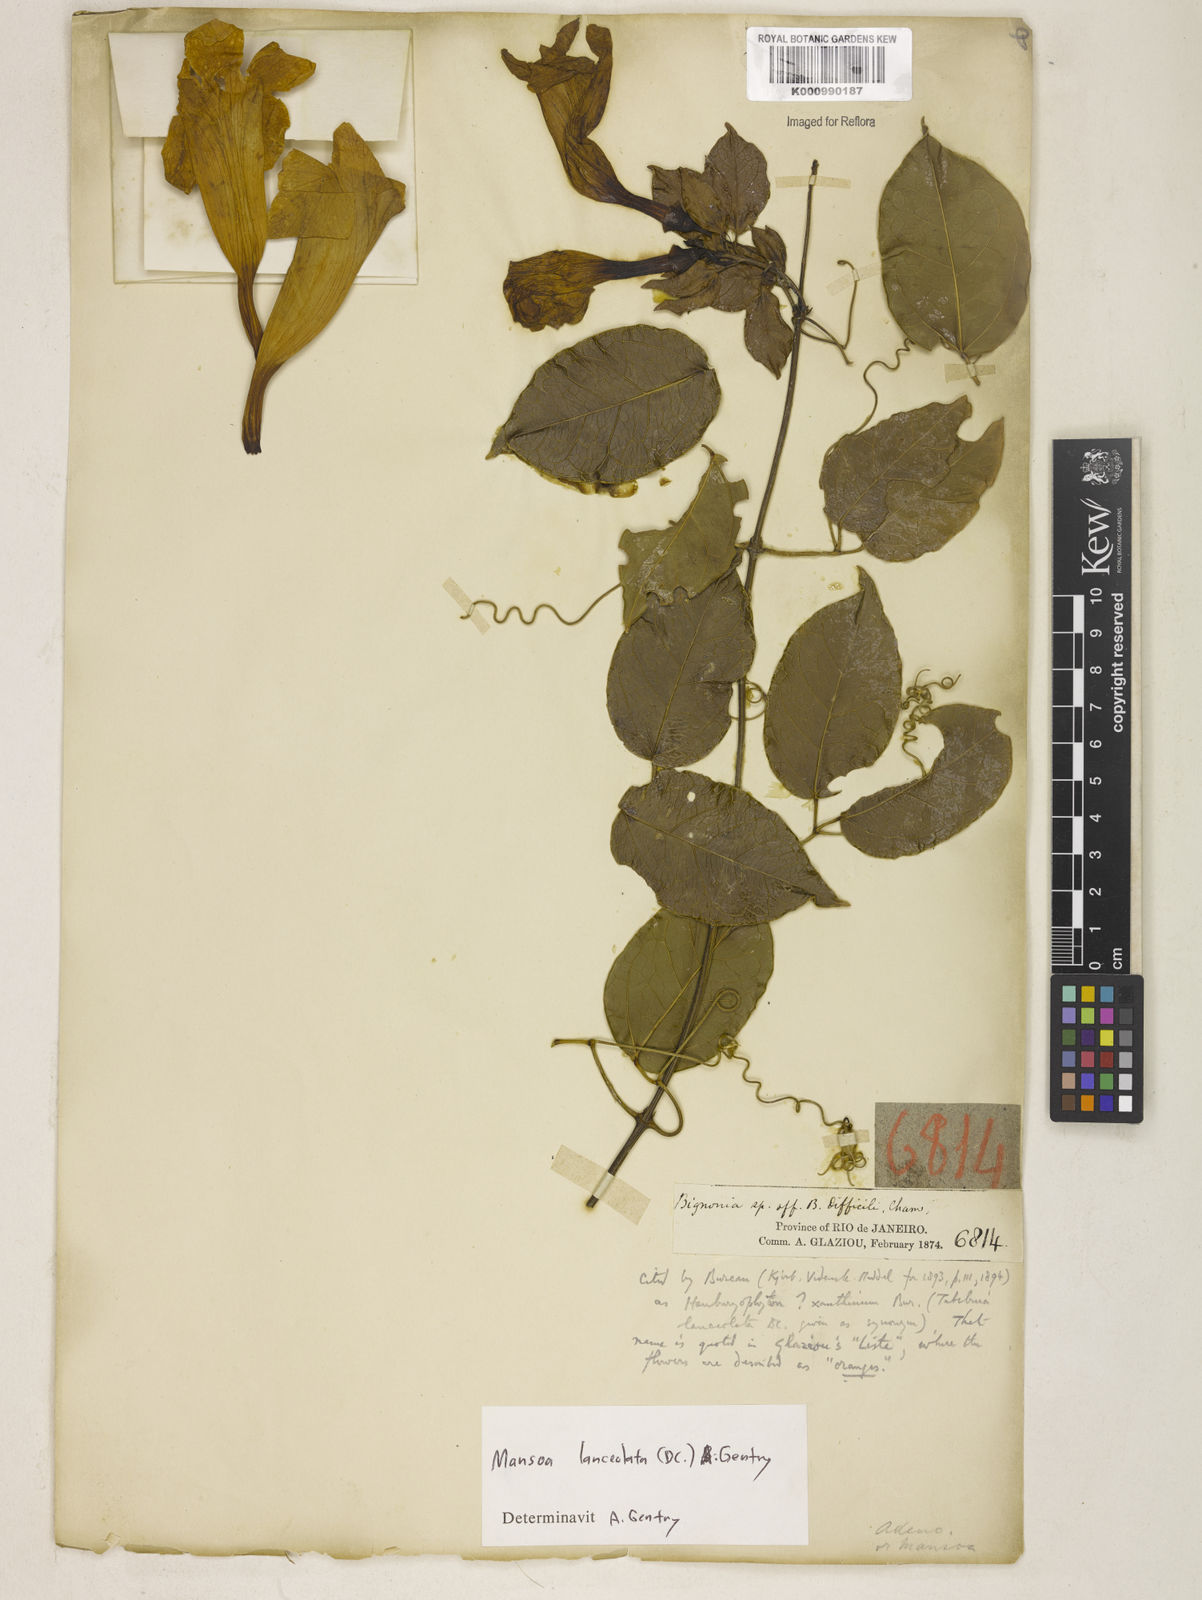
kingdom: Plantae
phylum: Tracheophyta
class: Magnoliopsida
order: Lamiales
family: Bignoniaceae
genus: Mansoa
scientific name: Mansoa difficilis
